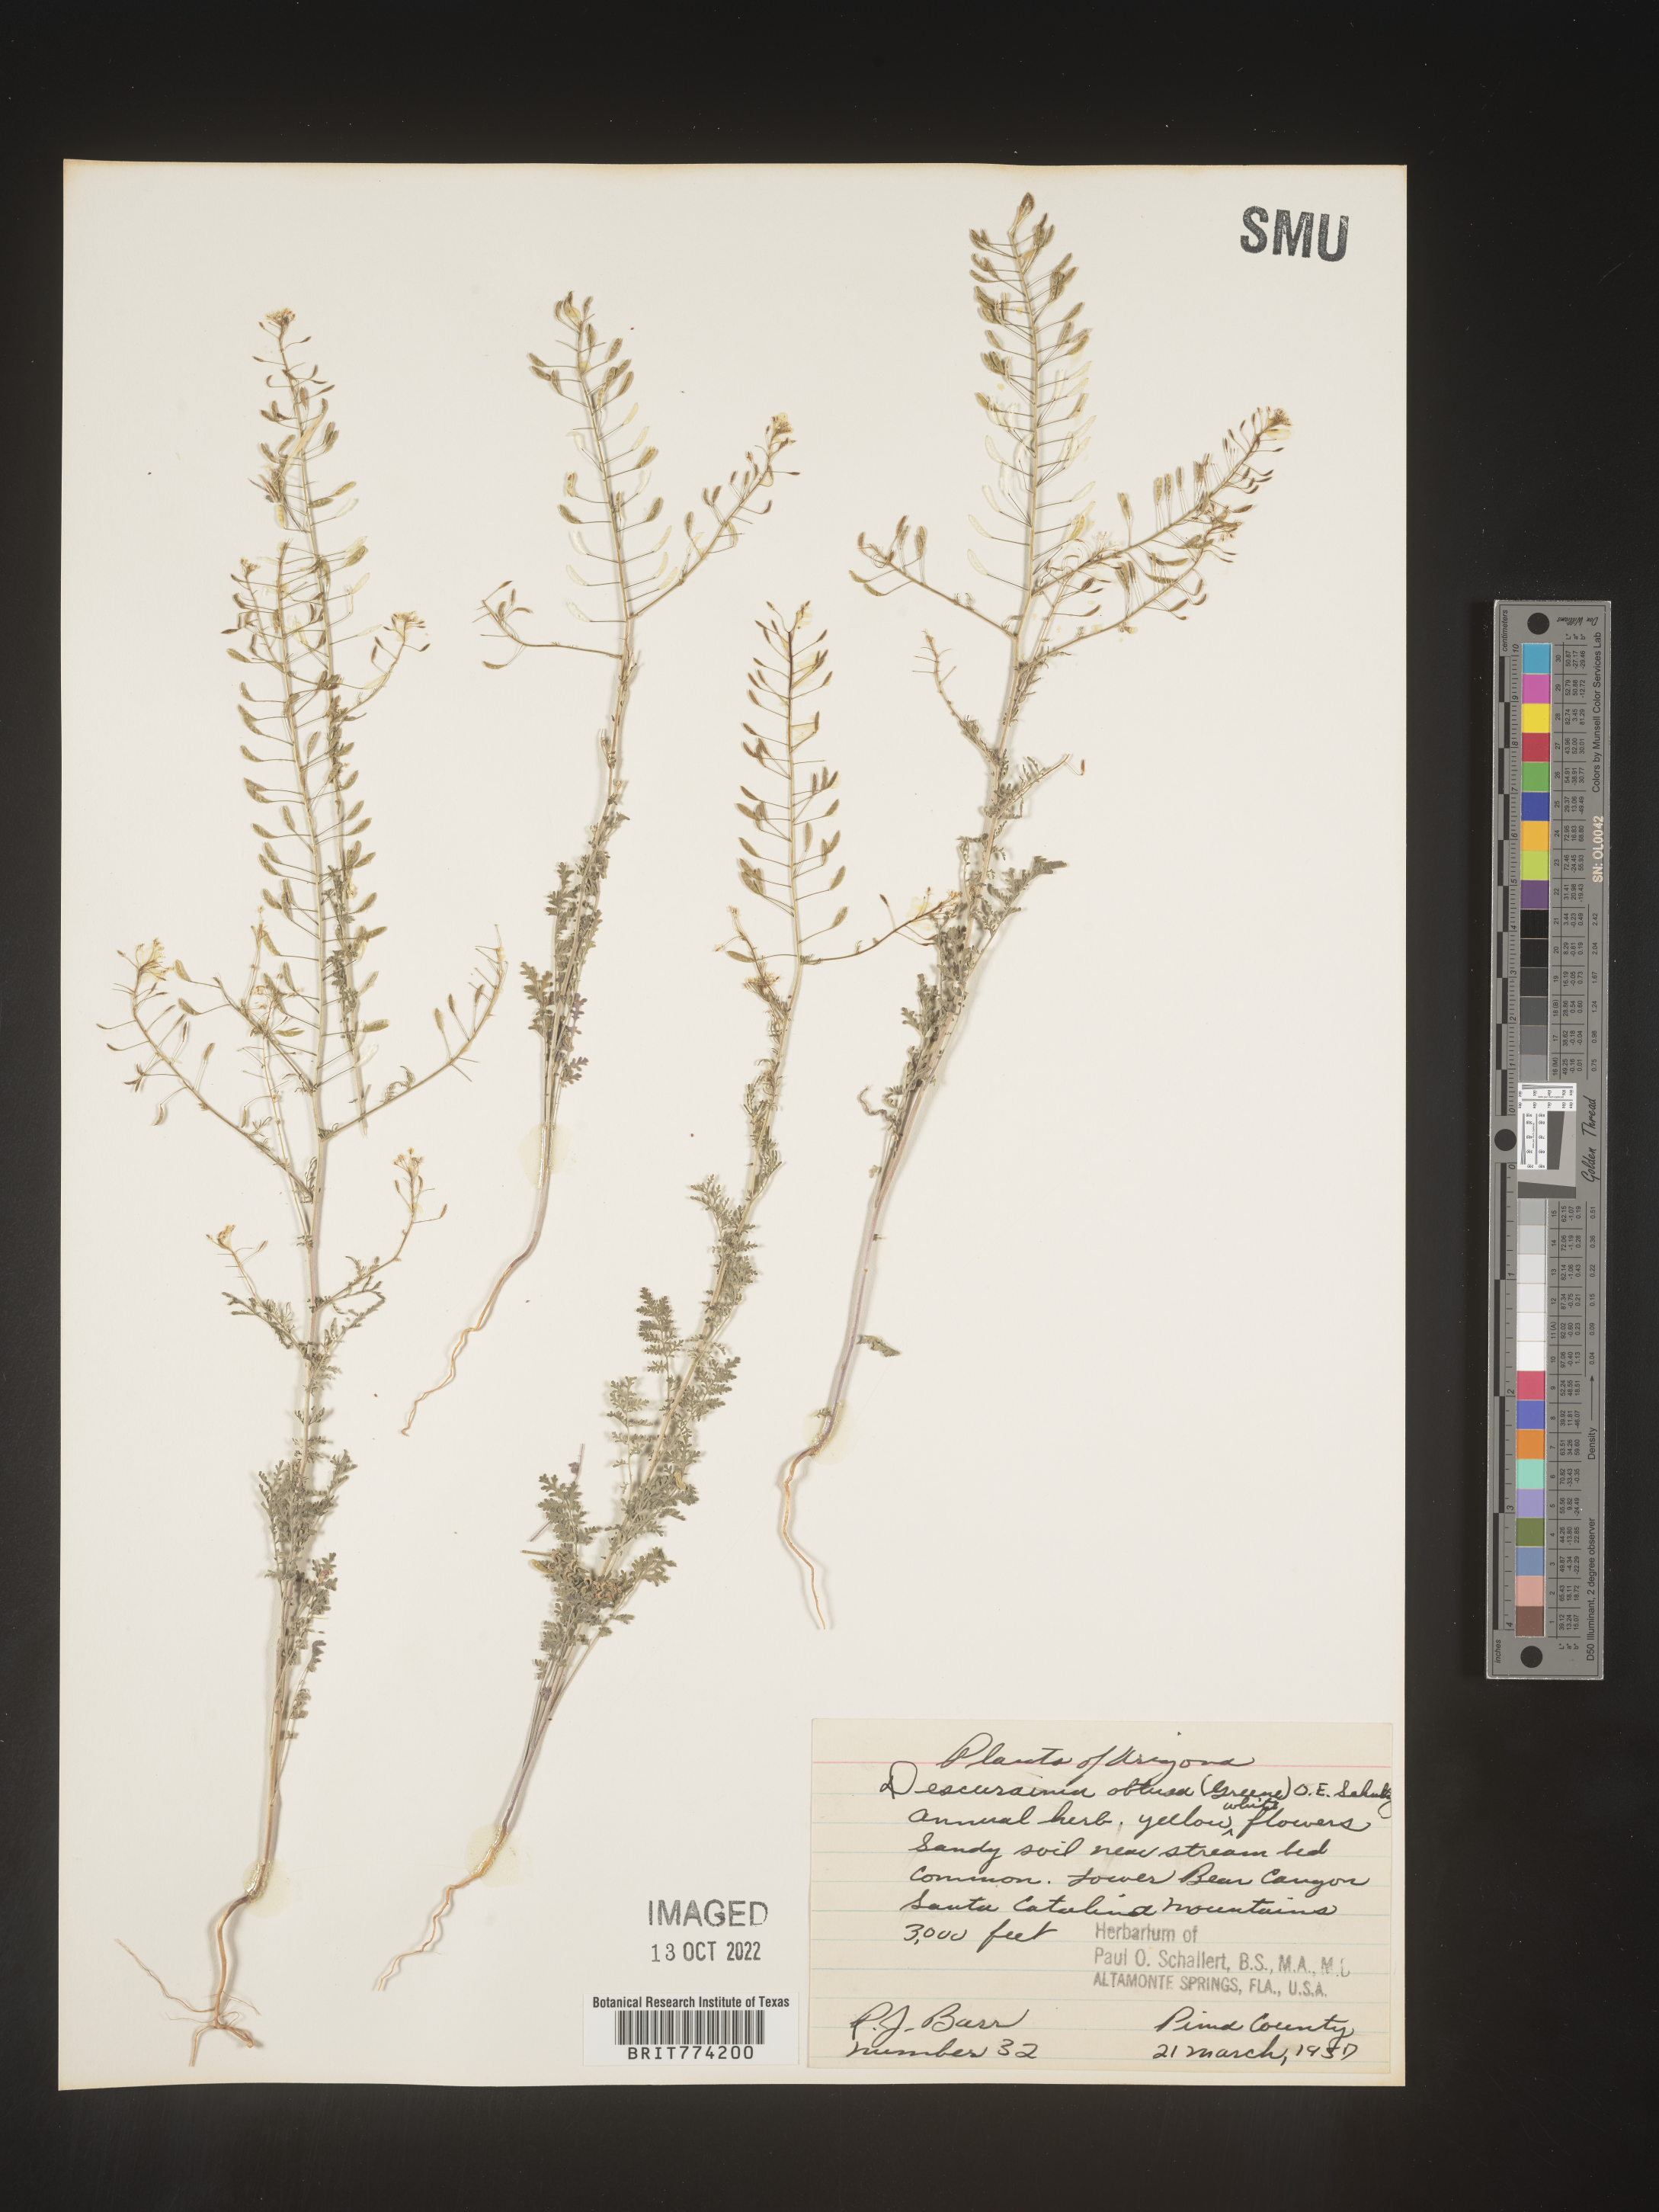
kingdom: Plantae
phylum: Tracheophyta
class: Magnoliopsida
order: Brassicales
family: Brassicaceae
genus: Descurainia
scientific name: Descurainia
